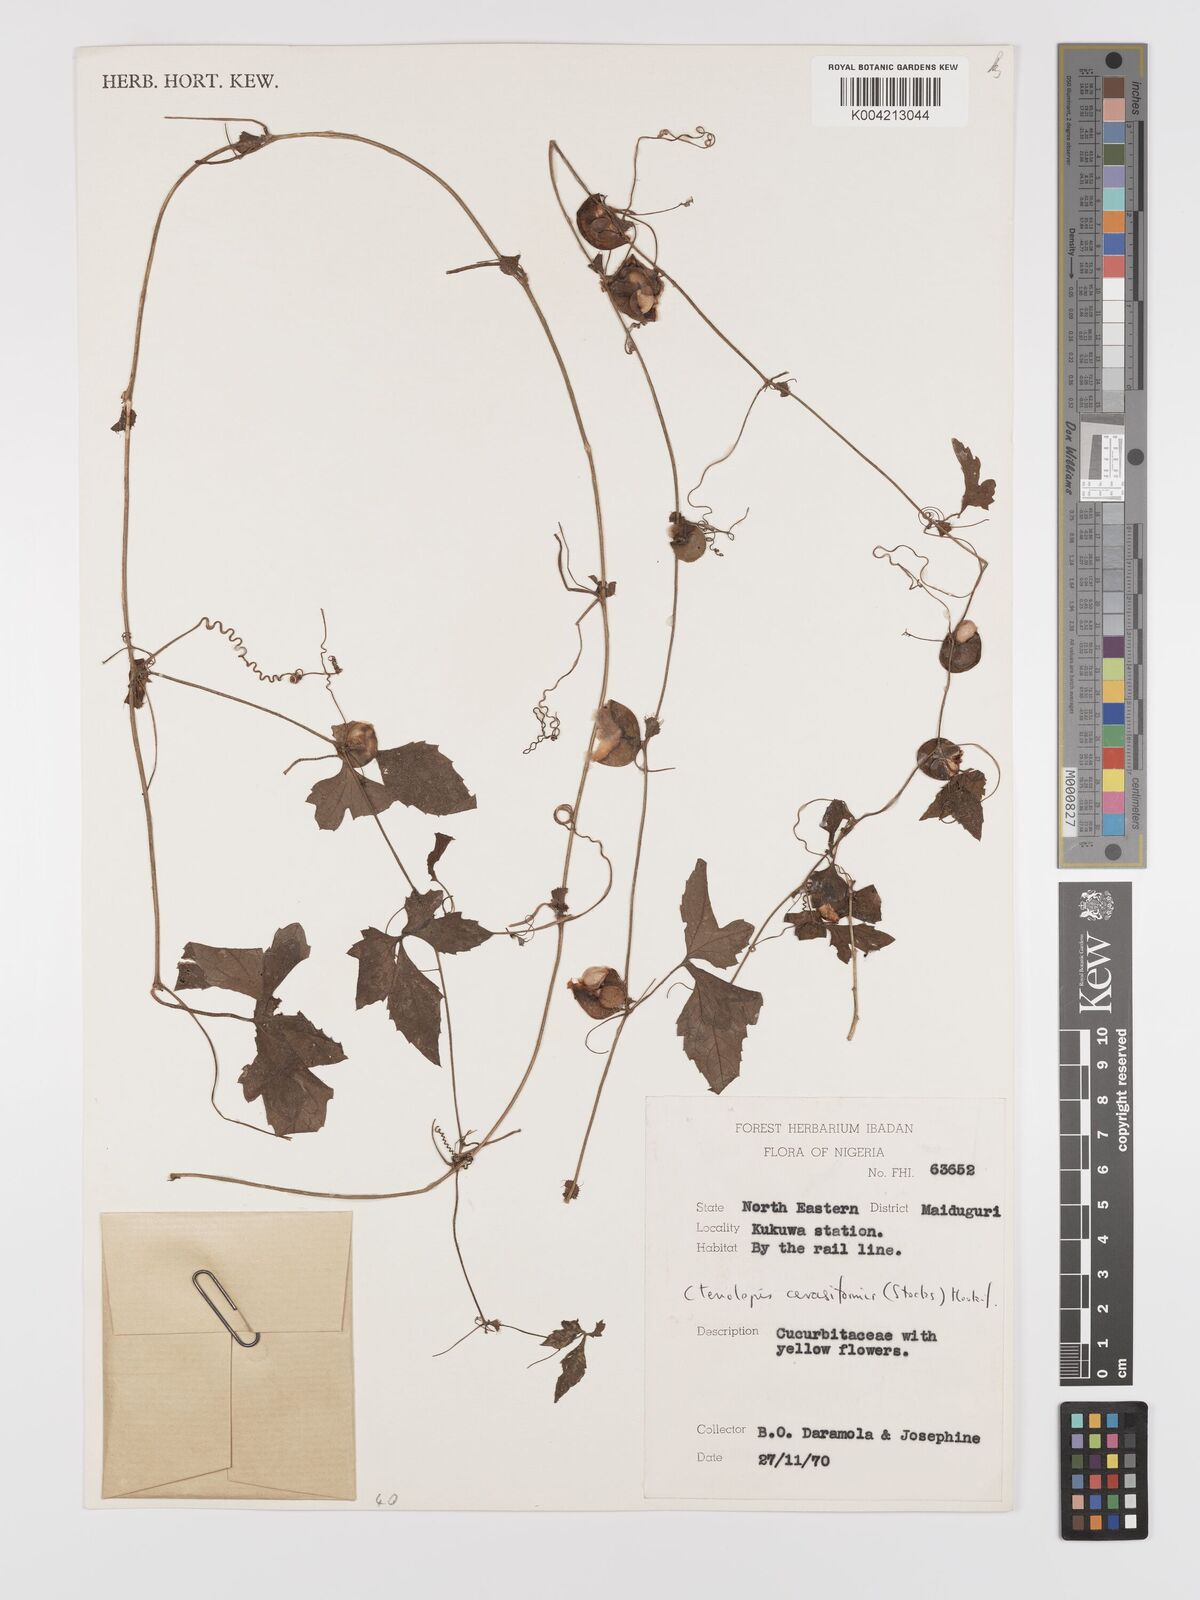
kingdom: Plantae
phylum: Tracheophyta
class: Magnoliopsida
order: Cucurbitales
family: Cucurbitaceae
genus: Blastania
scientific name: Blastania cerasiformis
